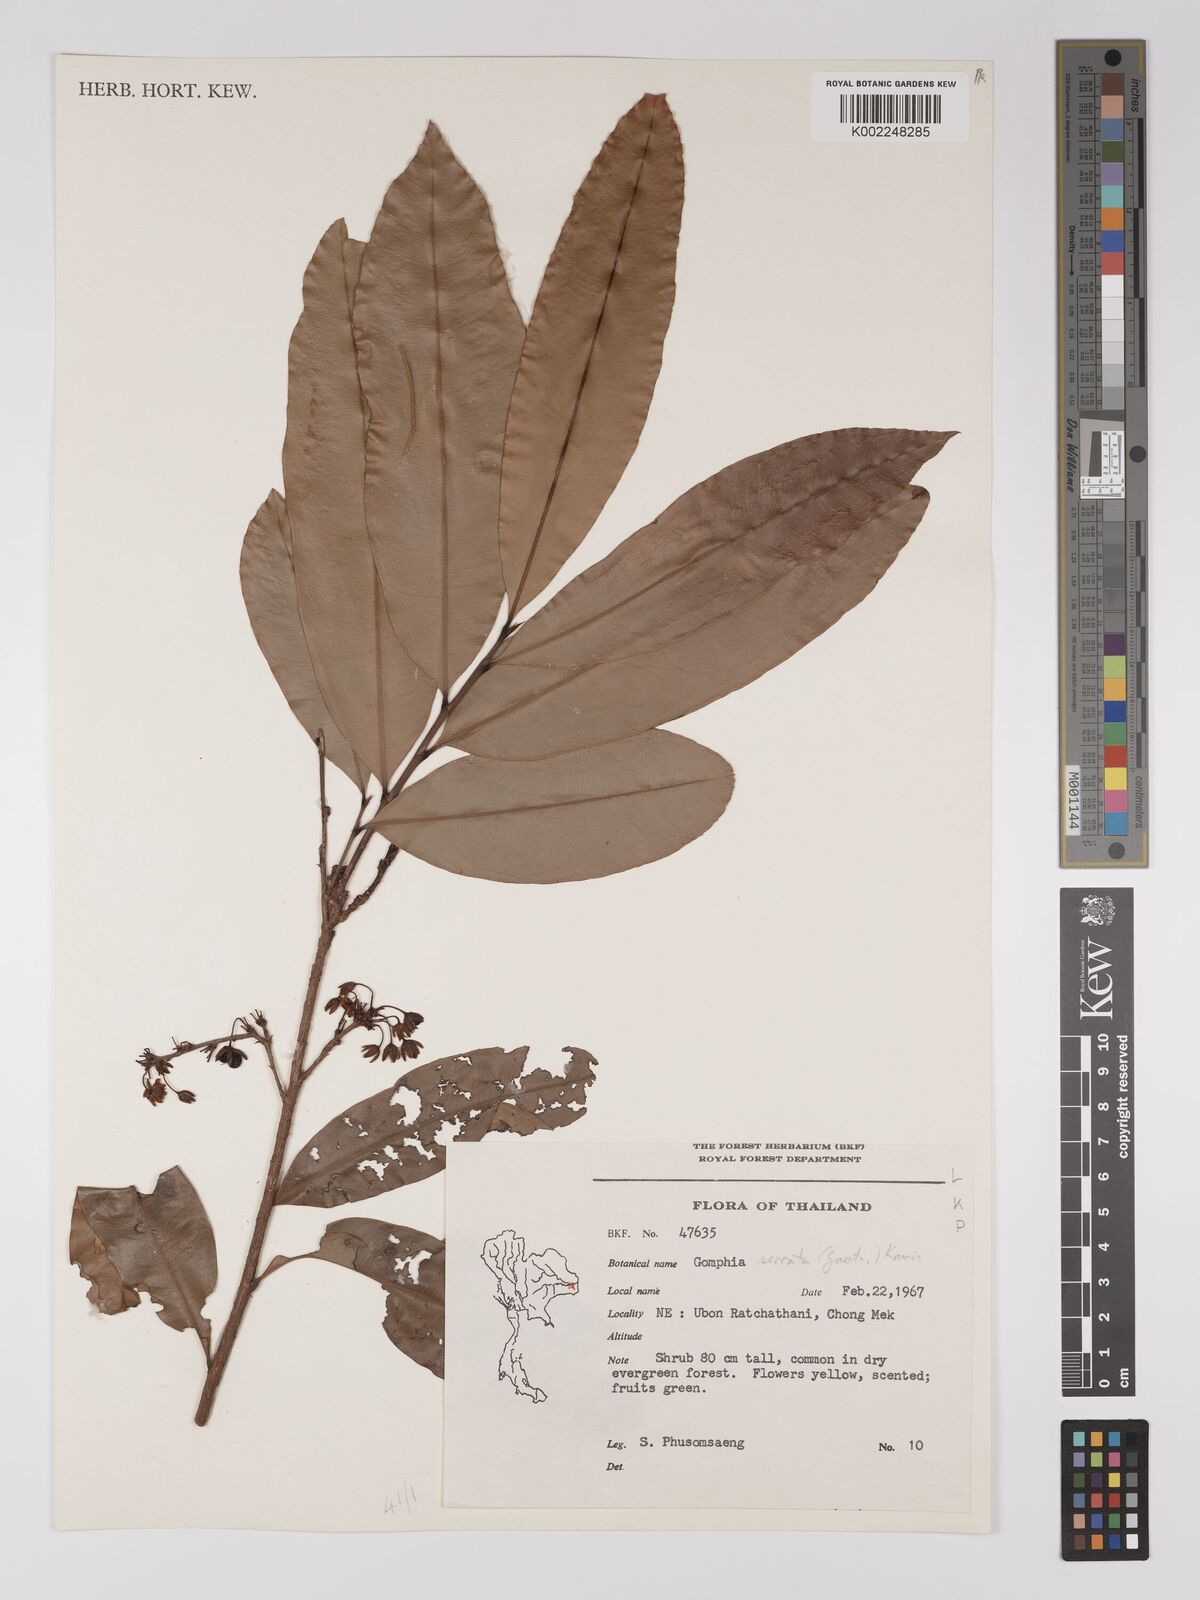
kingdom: Plantae
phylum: Tracheophyta
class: Magnoliopsida
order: Malpighiales
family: Ochnaceae
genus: Gomphia
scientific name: Gomphia serrata
